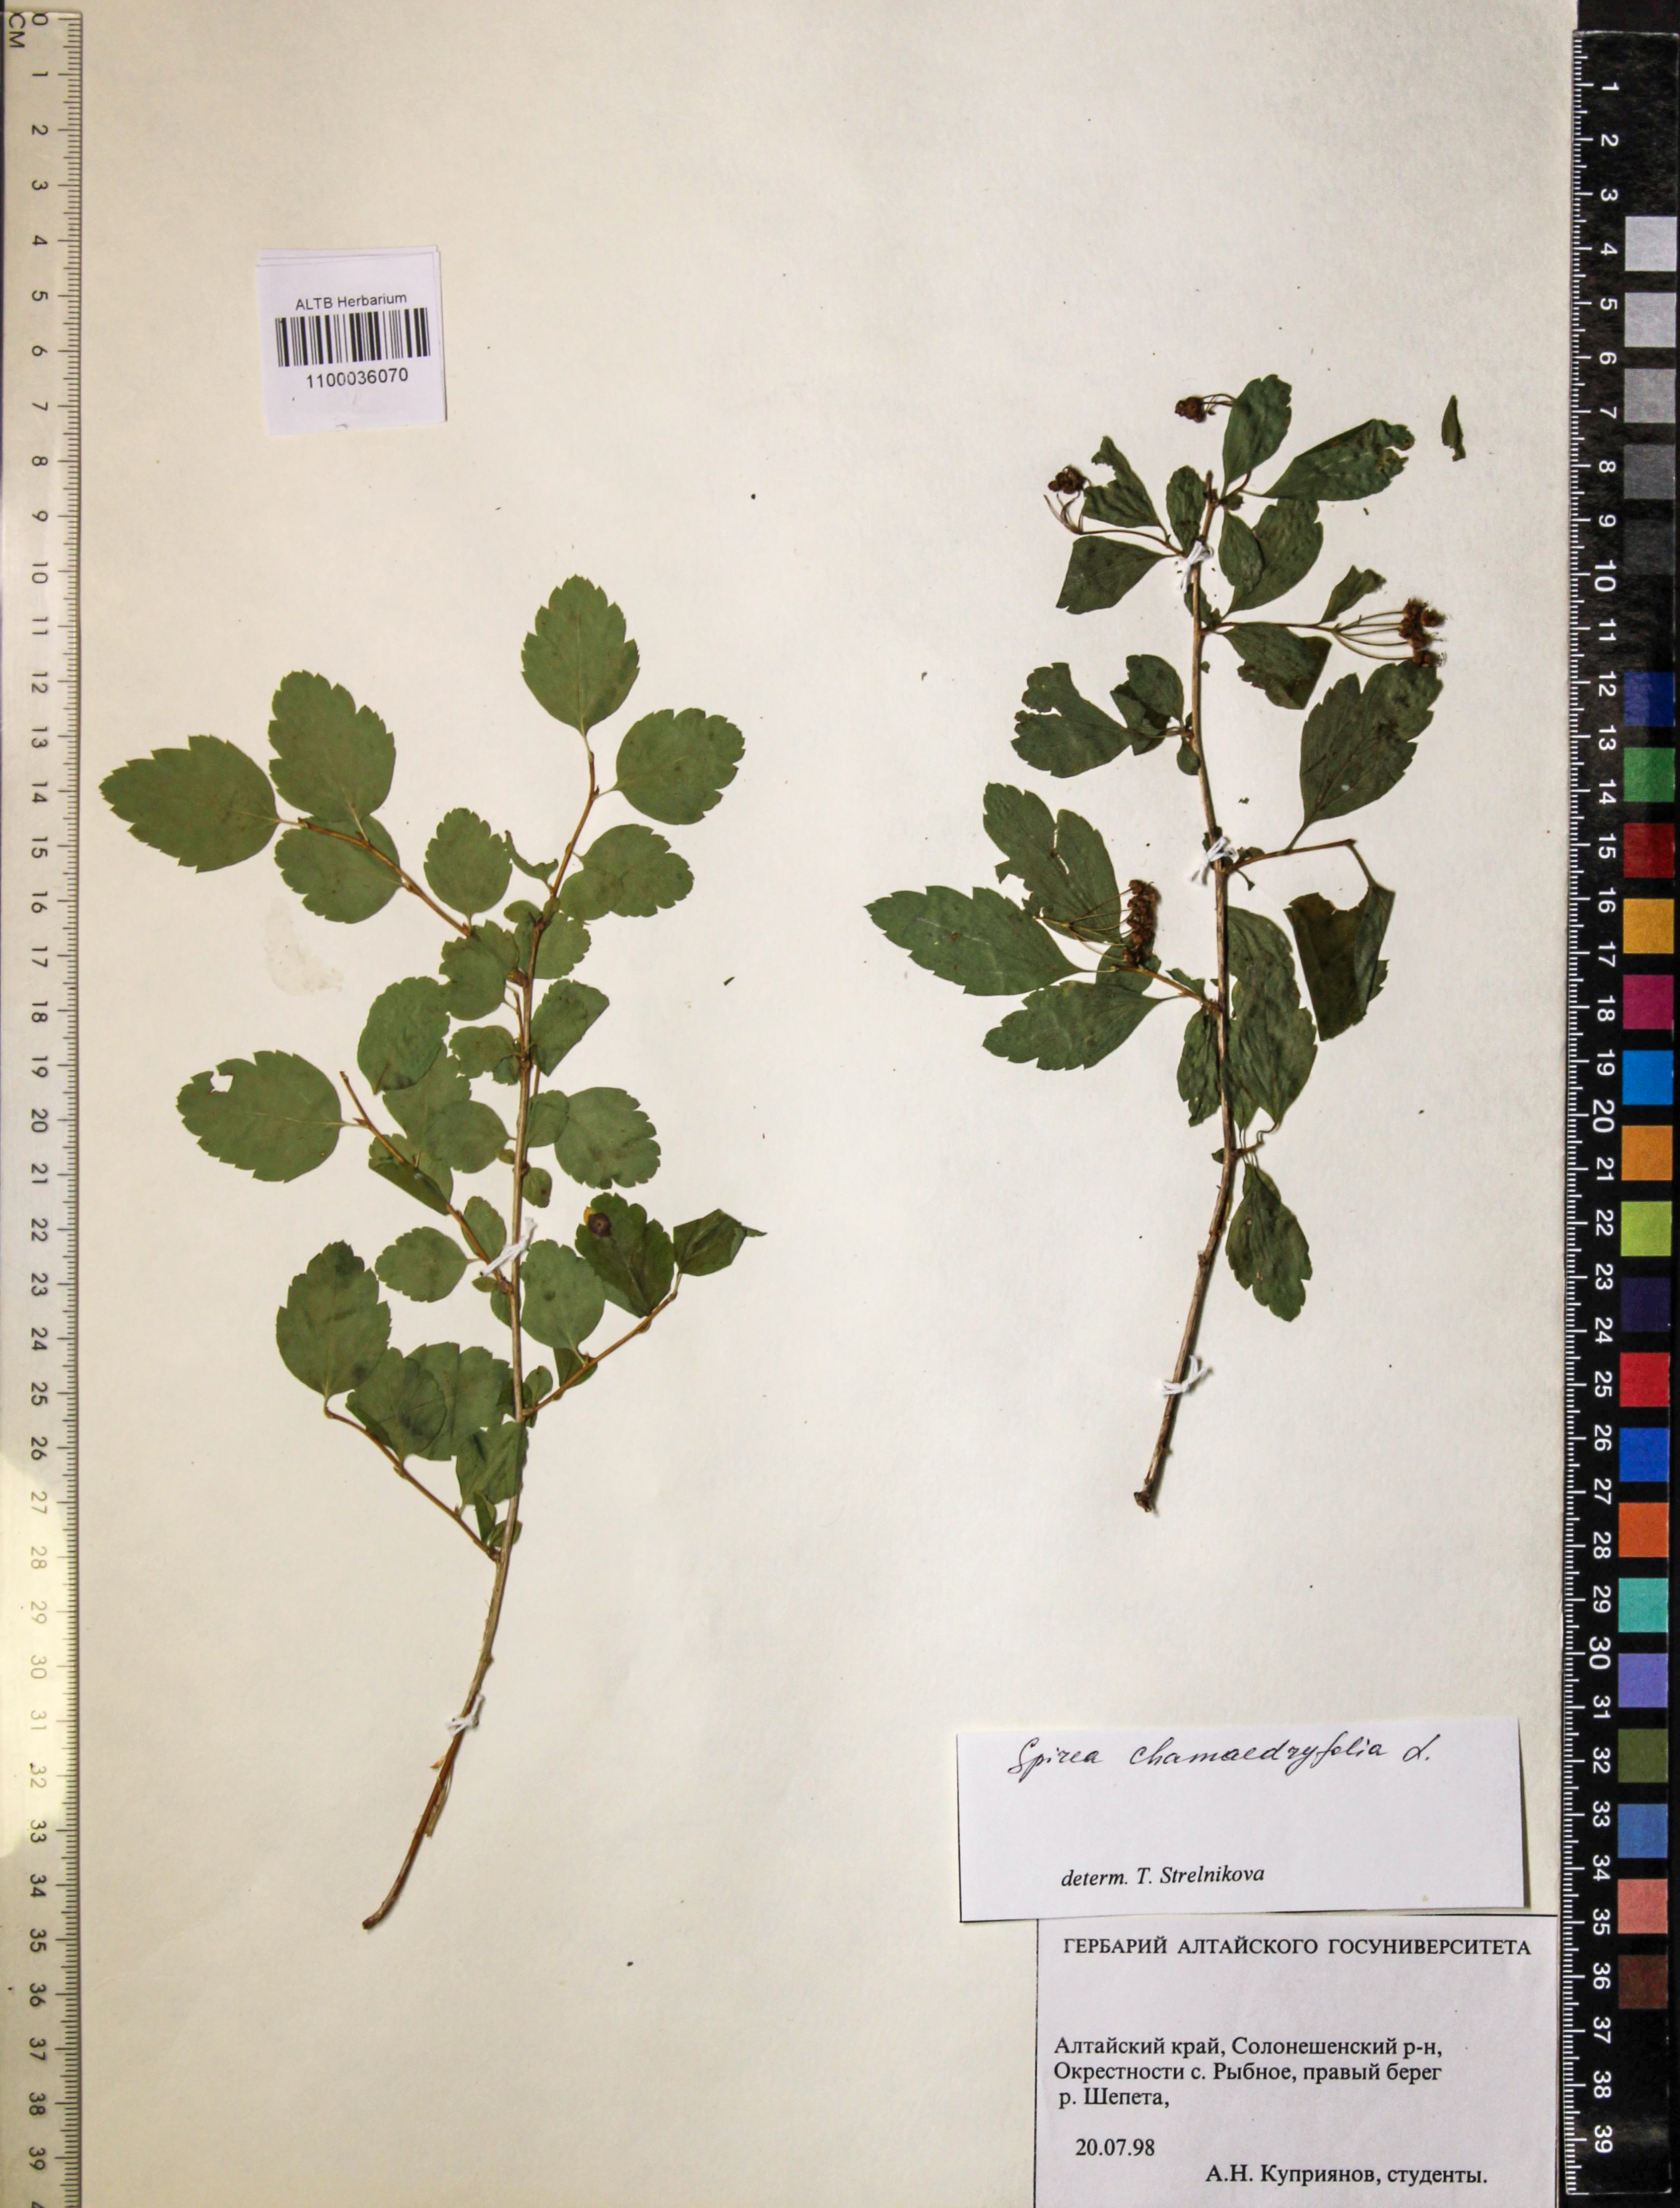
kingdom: Plantae
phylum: Tracheophyta
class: Magnoliopsida
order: Rosales
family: Rosaceae
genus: Spiraea
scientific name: Spiraea chamaedryfolia
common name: Elm-leaved spiraea
